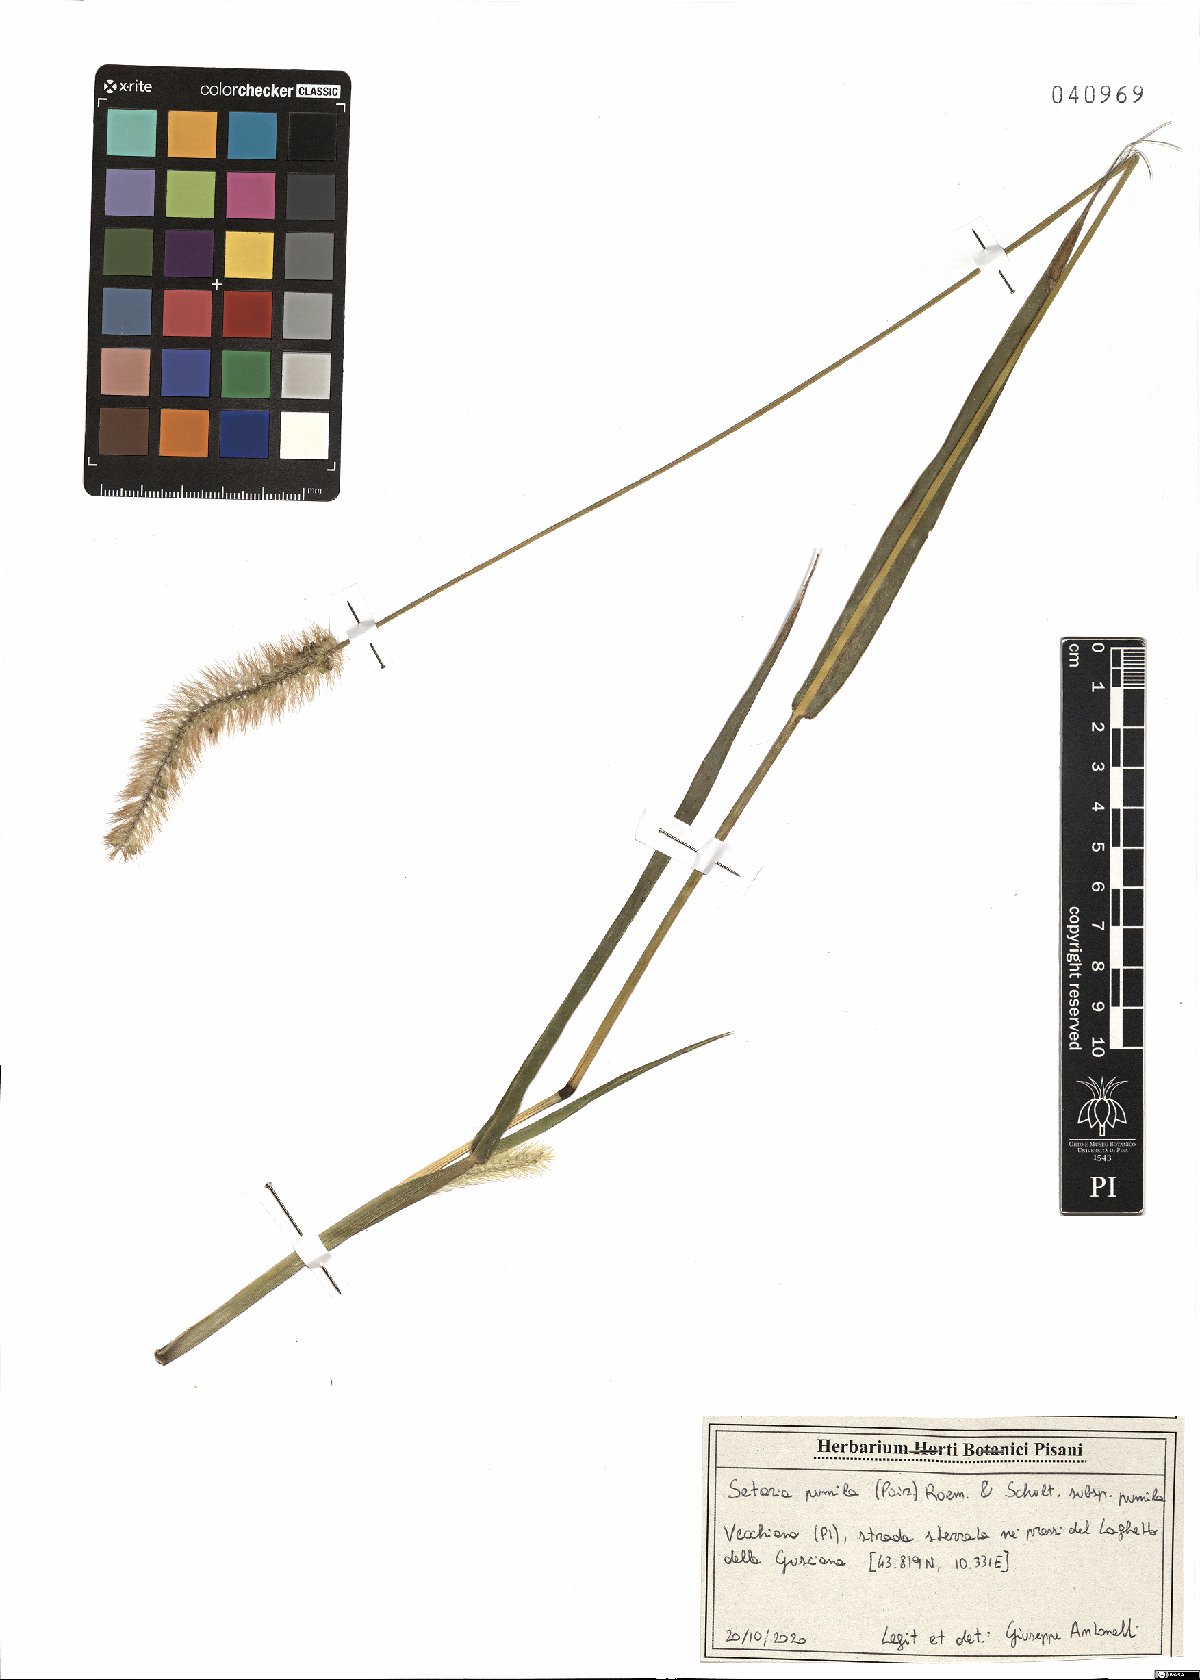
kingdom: Plantae
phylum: Tracheophyta
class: Liliopsida
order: Poales
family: Poaceae
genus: Setaria
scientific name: Setaria pumila
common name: Yellow bristle-grass
